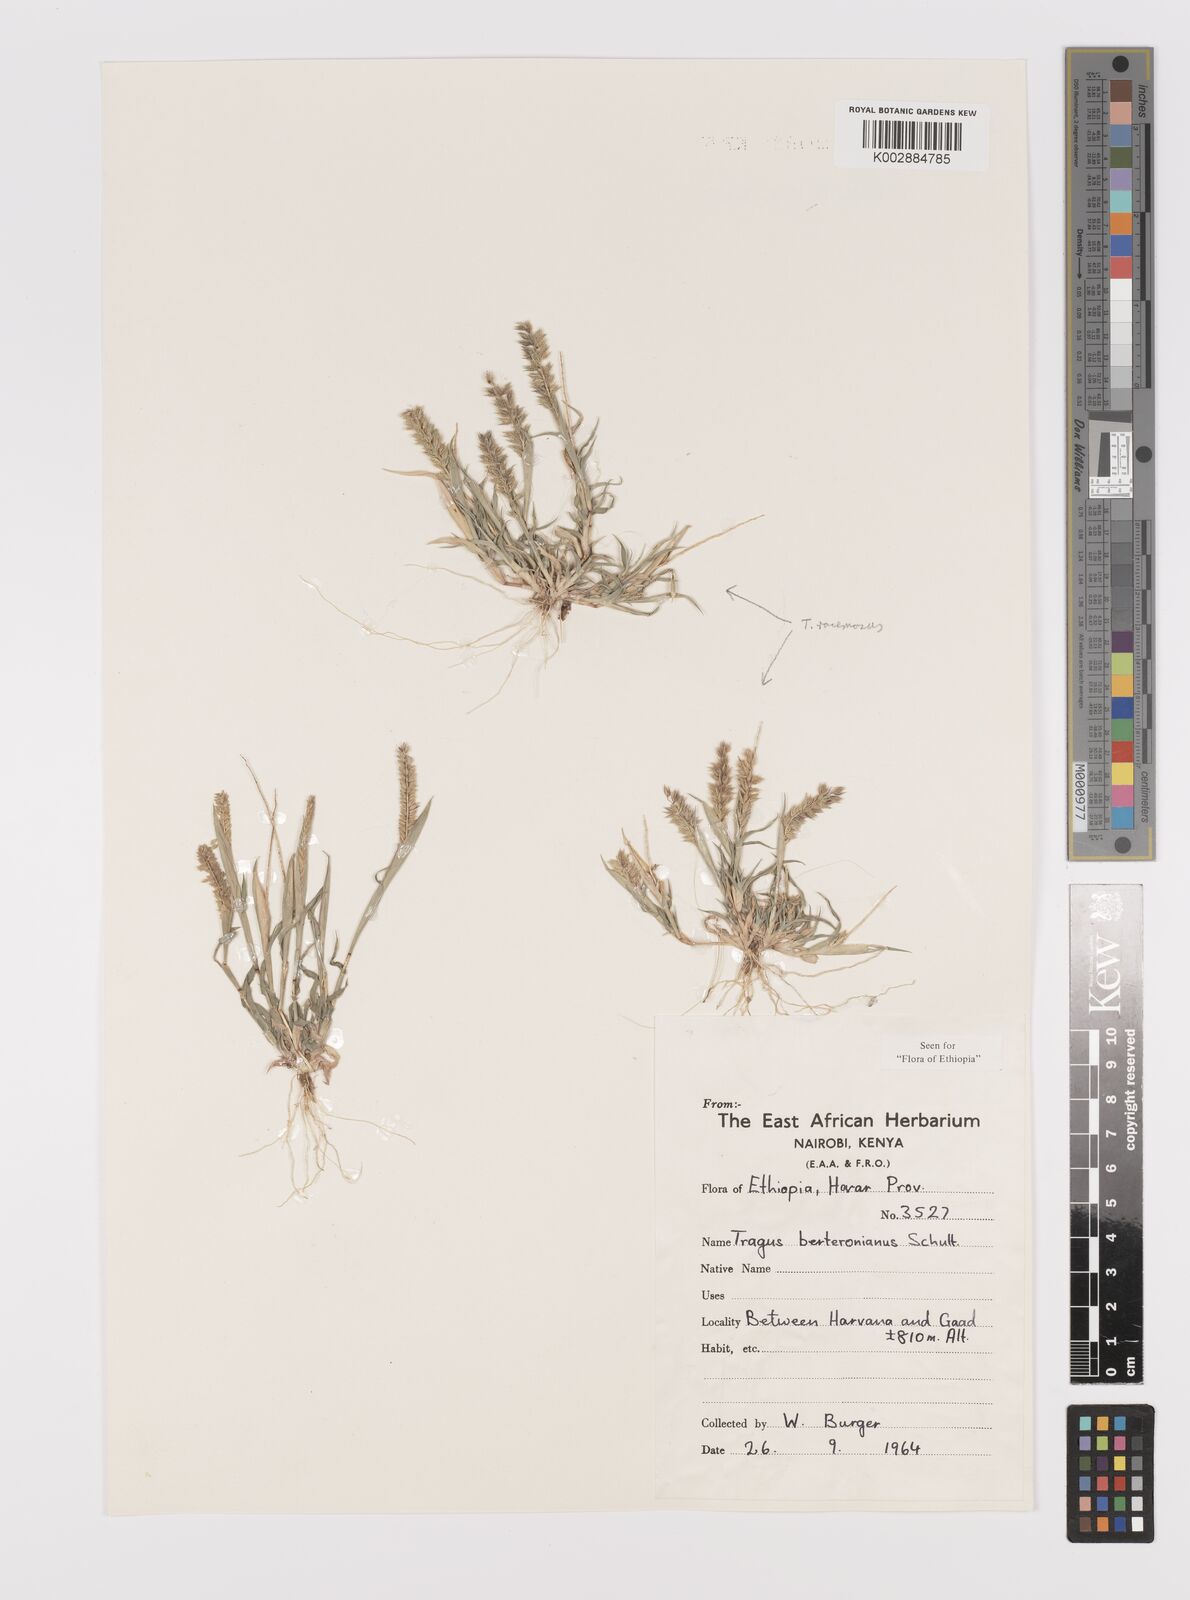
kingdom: Plantae
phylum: Tracheophyta
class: Liliopsida
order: Poales
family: Poaceae
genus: Tragus
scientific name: Tragus berteronianus
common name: African bur-grass
